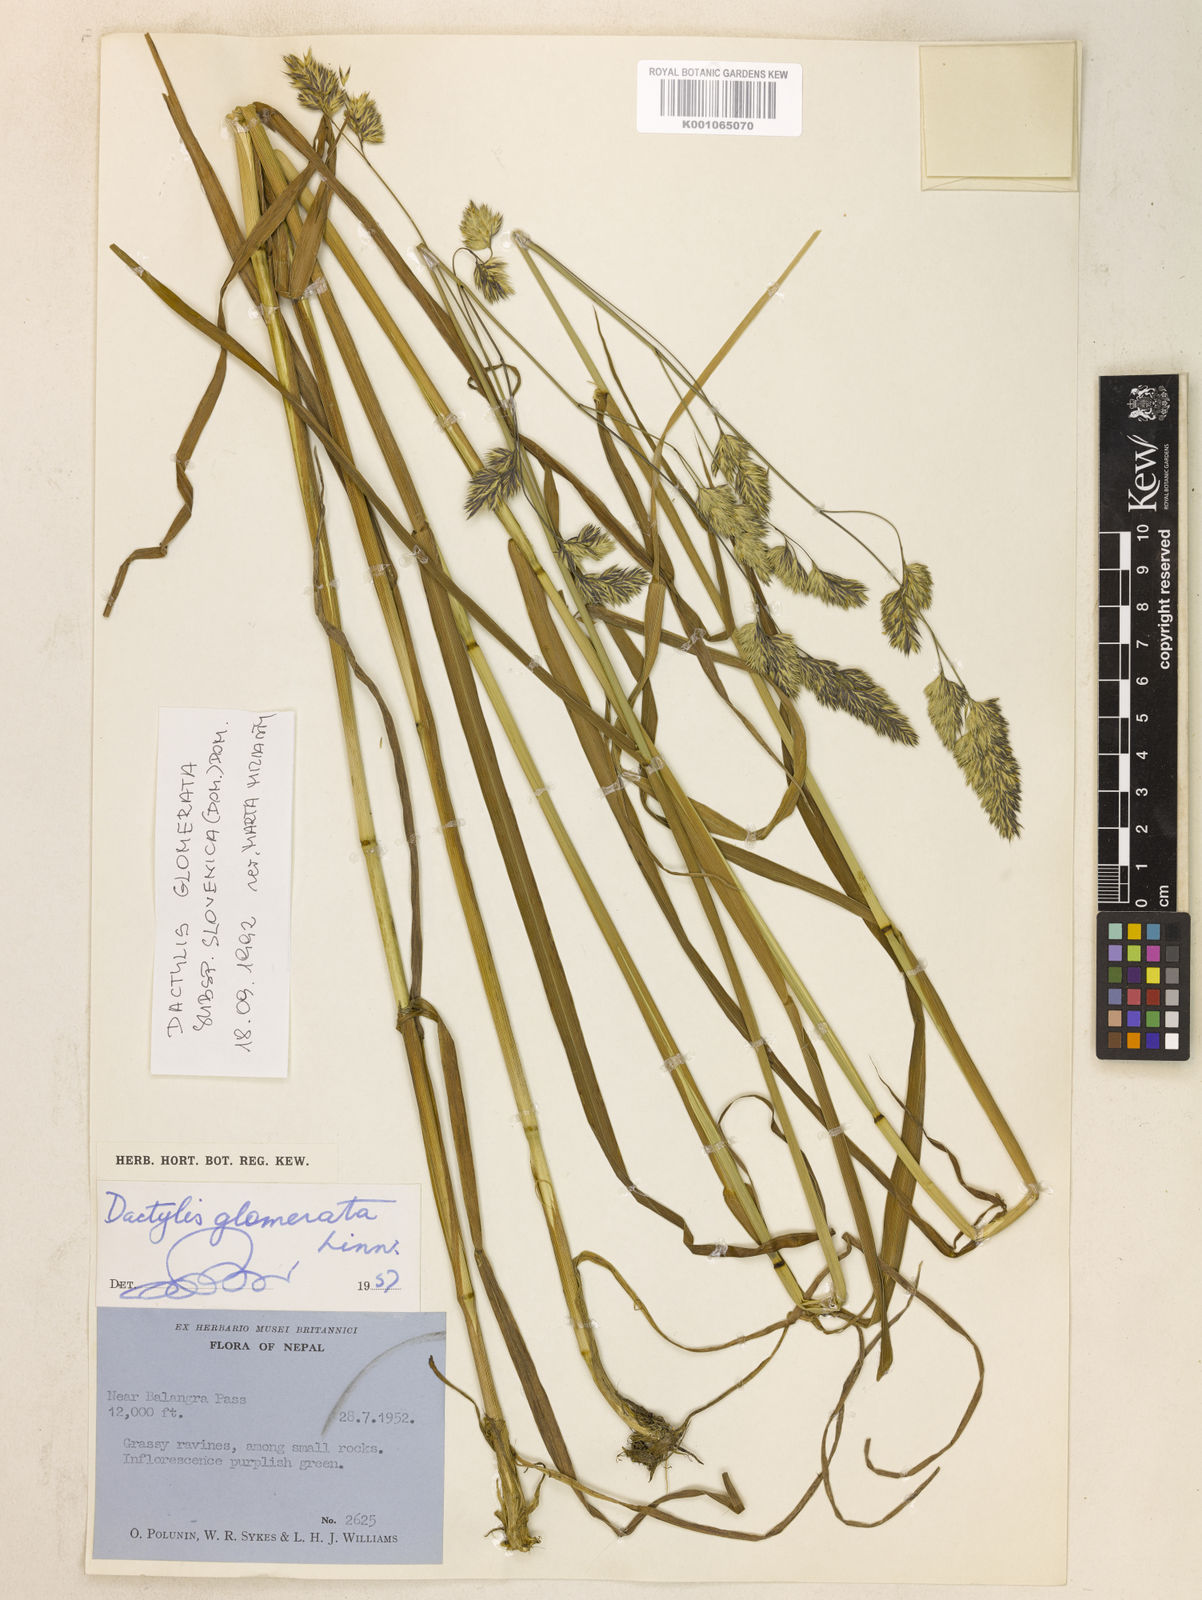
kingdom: Plantae
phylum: Tracheophyta
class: Liliopsida
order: Poales
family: Poaceae
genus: Dactylis
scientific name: Dactylis glomerata
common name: Orchardgrass
